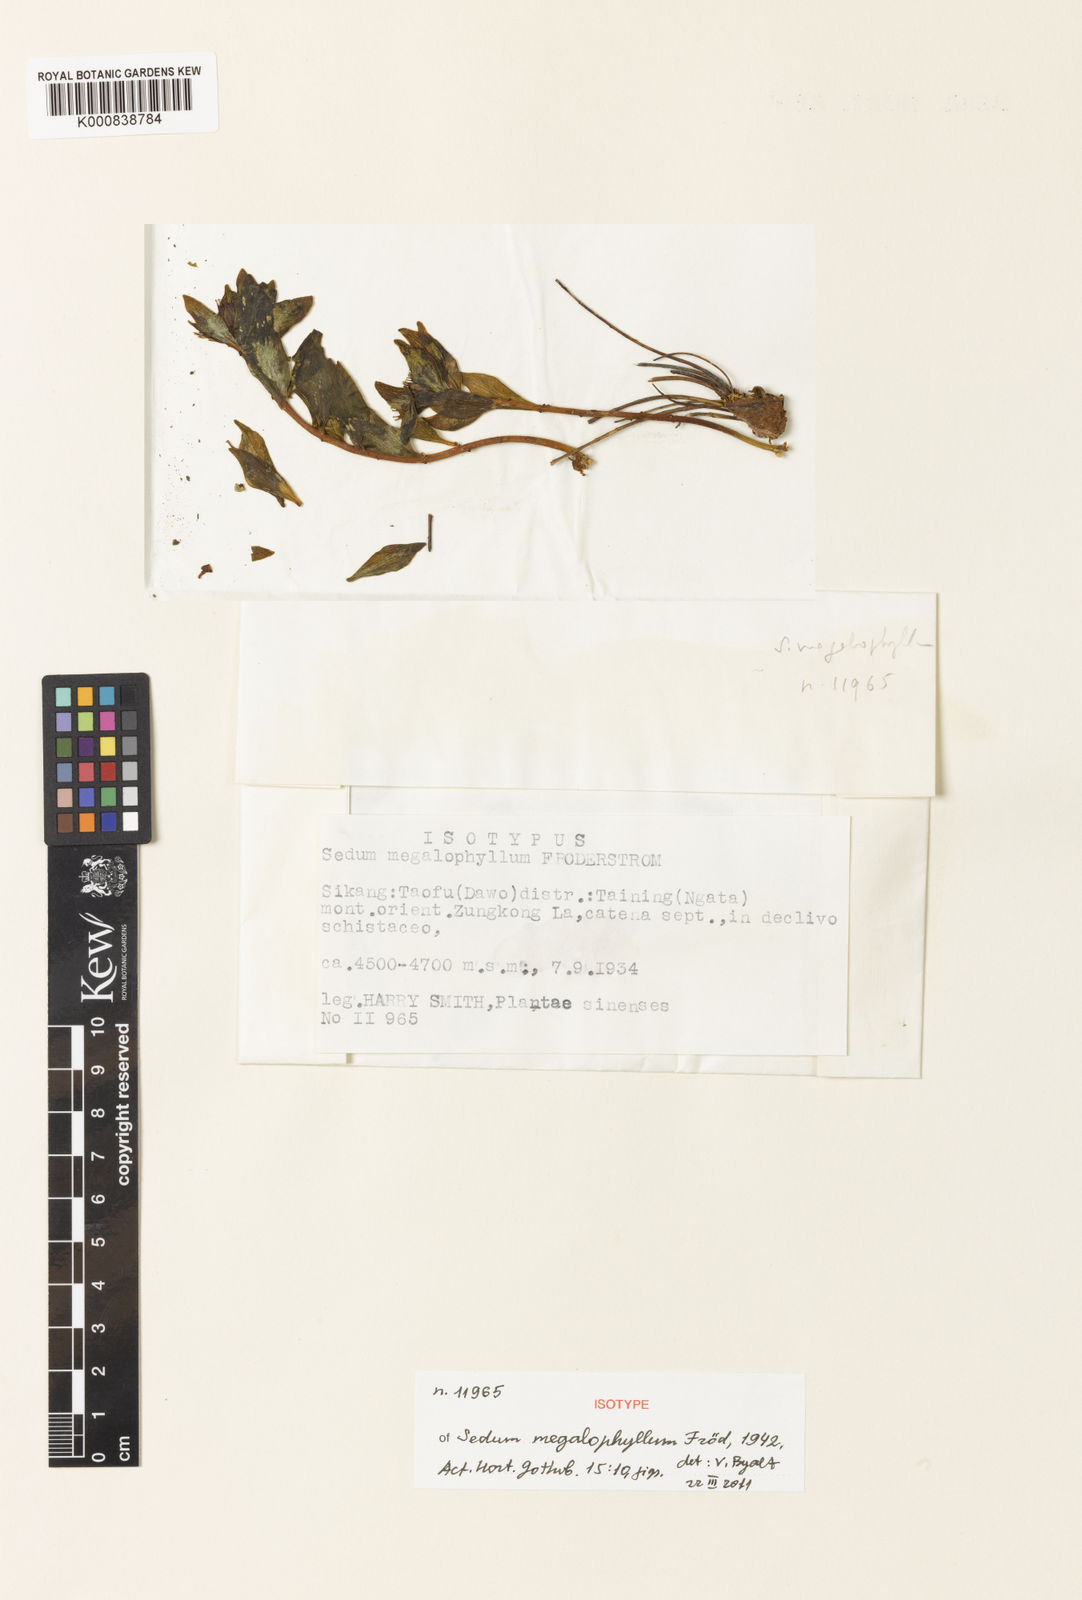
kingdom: Plantae
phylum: Tracheophyta
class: Magnoliopsida
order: Saxifragales
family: Crassulaceae
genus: Sedum
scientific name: Sedum
